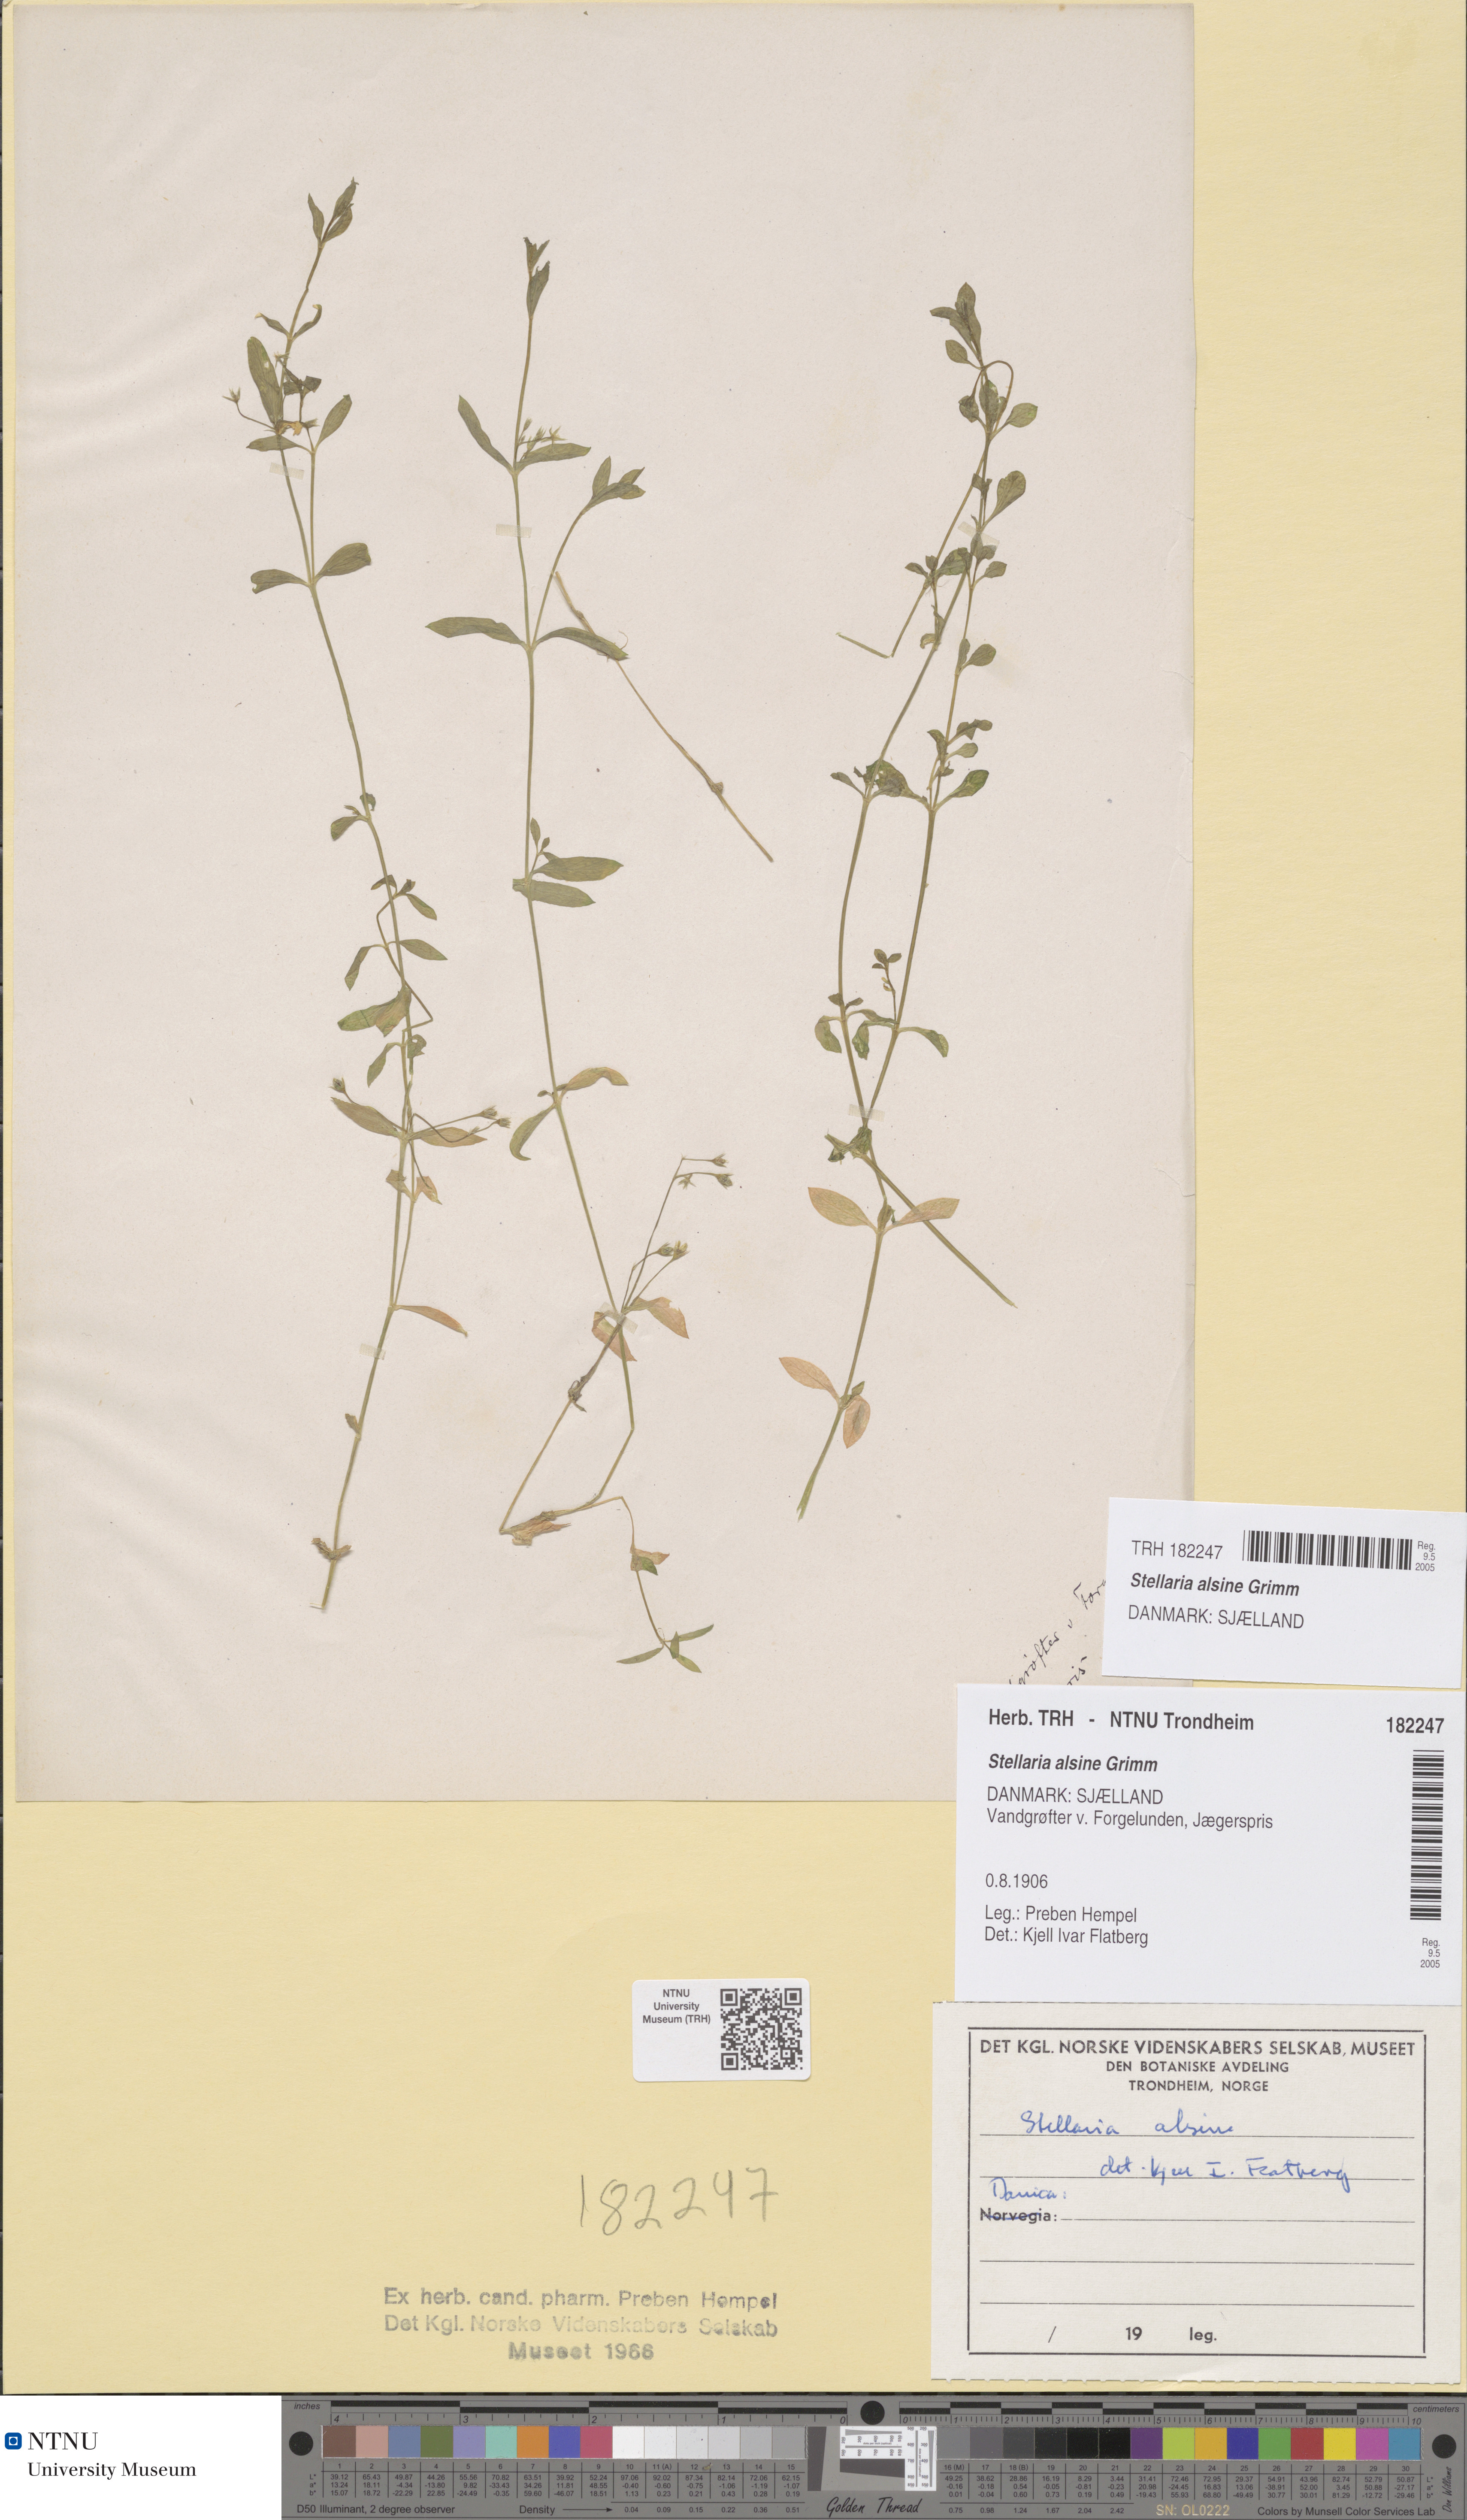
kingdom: Plantae
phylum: Tracheophyta
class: Magnoliopsida
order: Caryophyllales
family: Caryophyllaceae
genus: Stellaria
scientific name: Stellaria alsine
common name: Bog stitchwort
